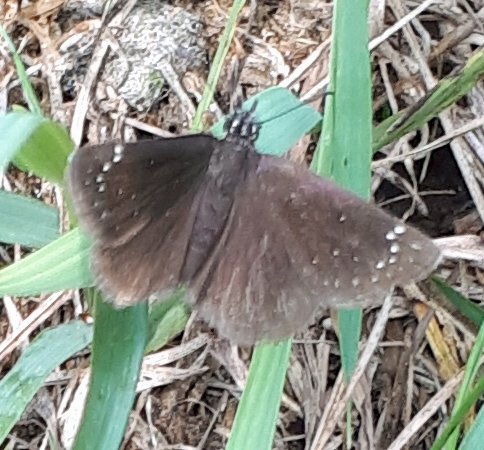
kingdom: Animalia
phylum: Arthropoda
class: Insecta
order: Lepidoptera
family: Hesperiidae
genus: Pholisora
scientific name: Pholisora catullus
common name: Common Sootywing
